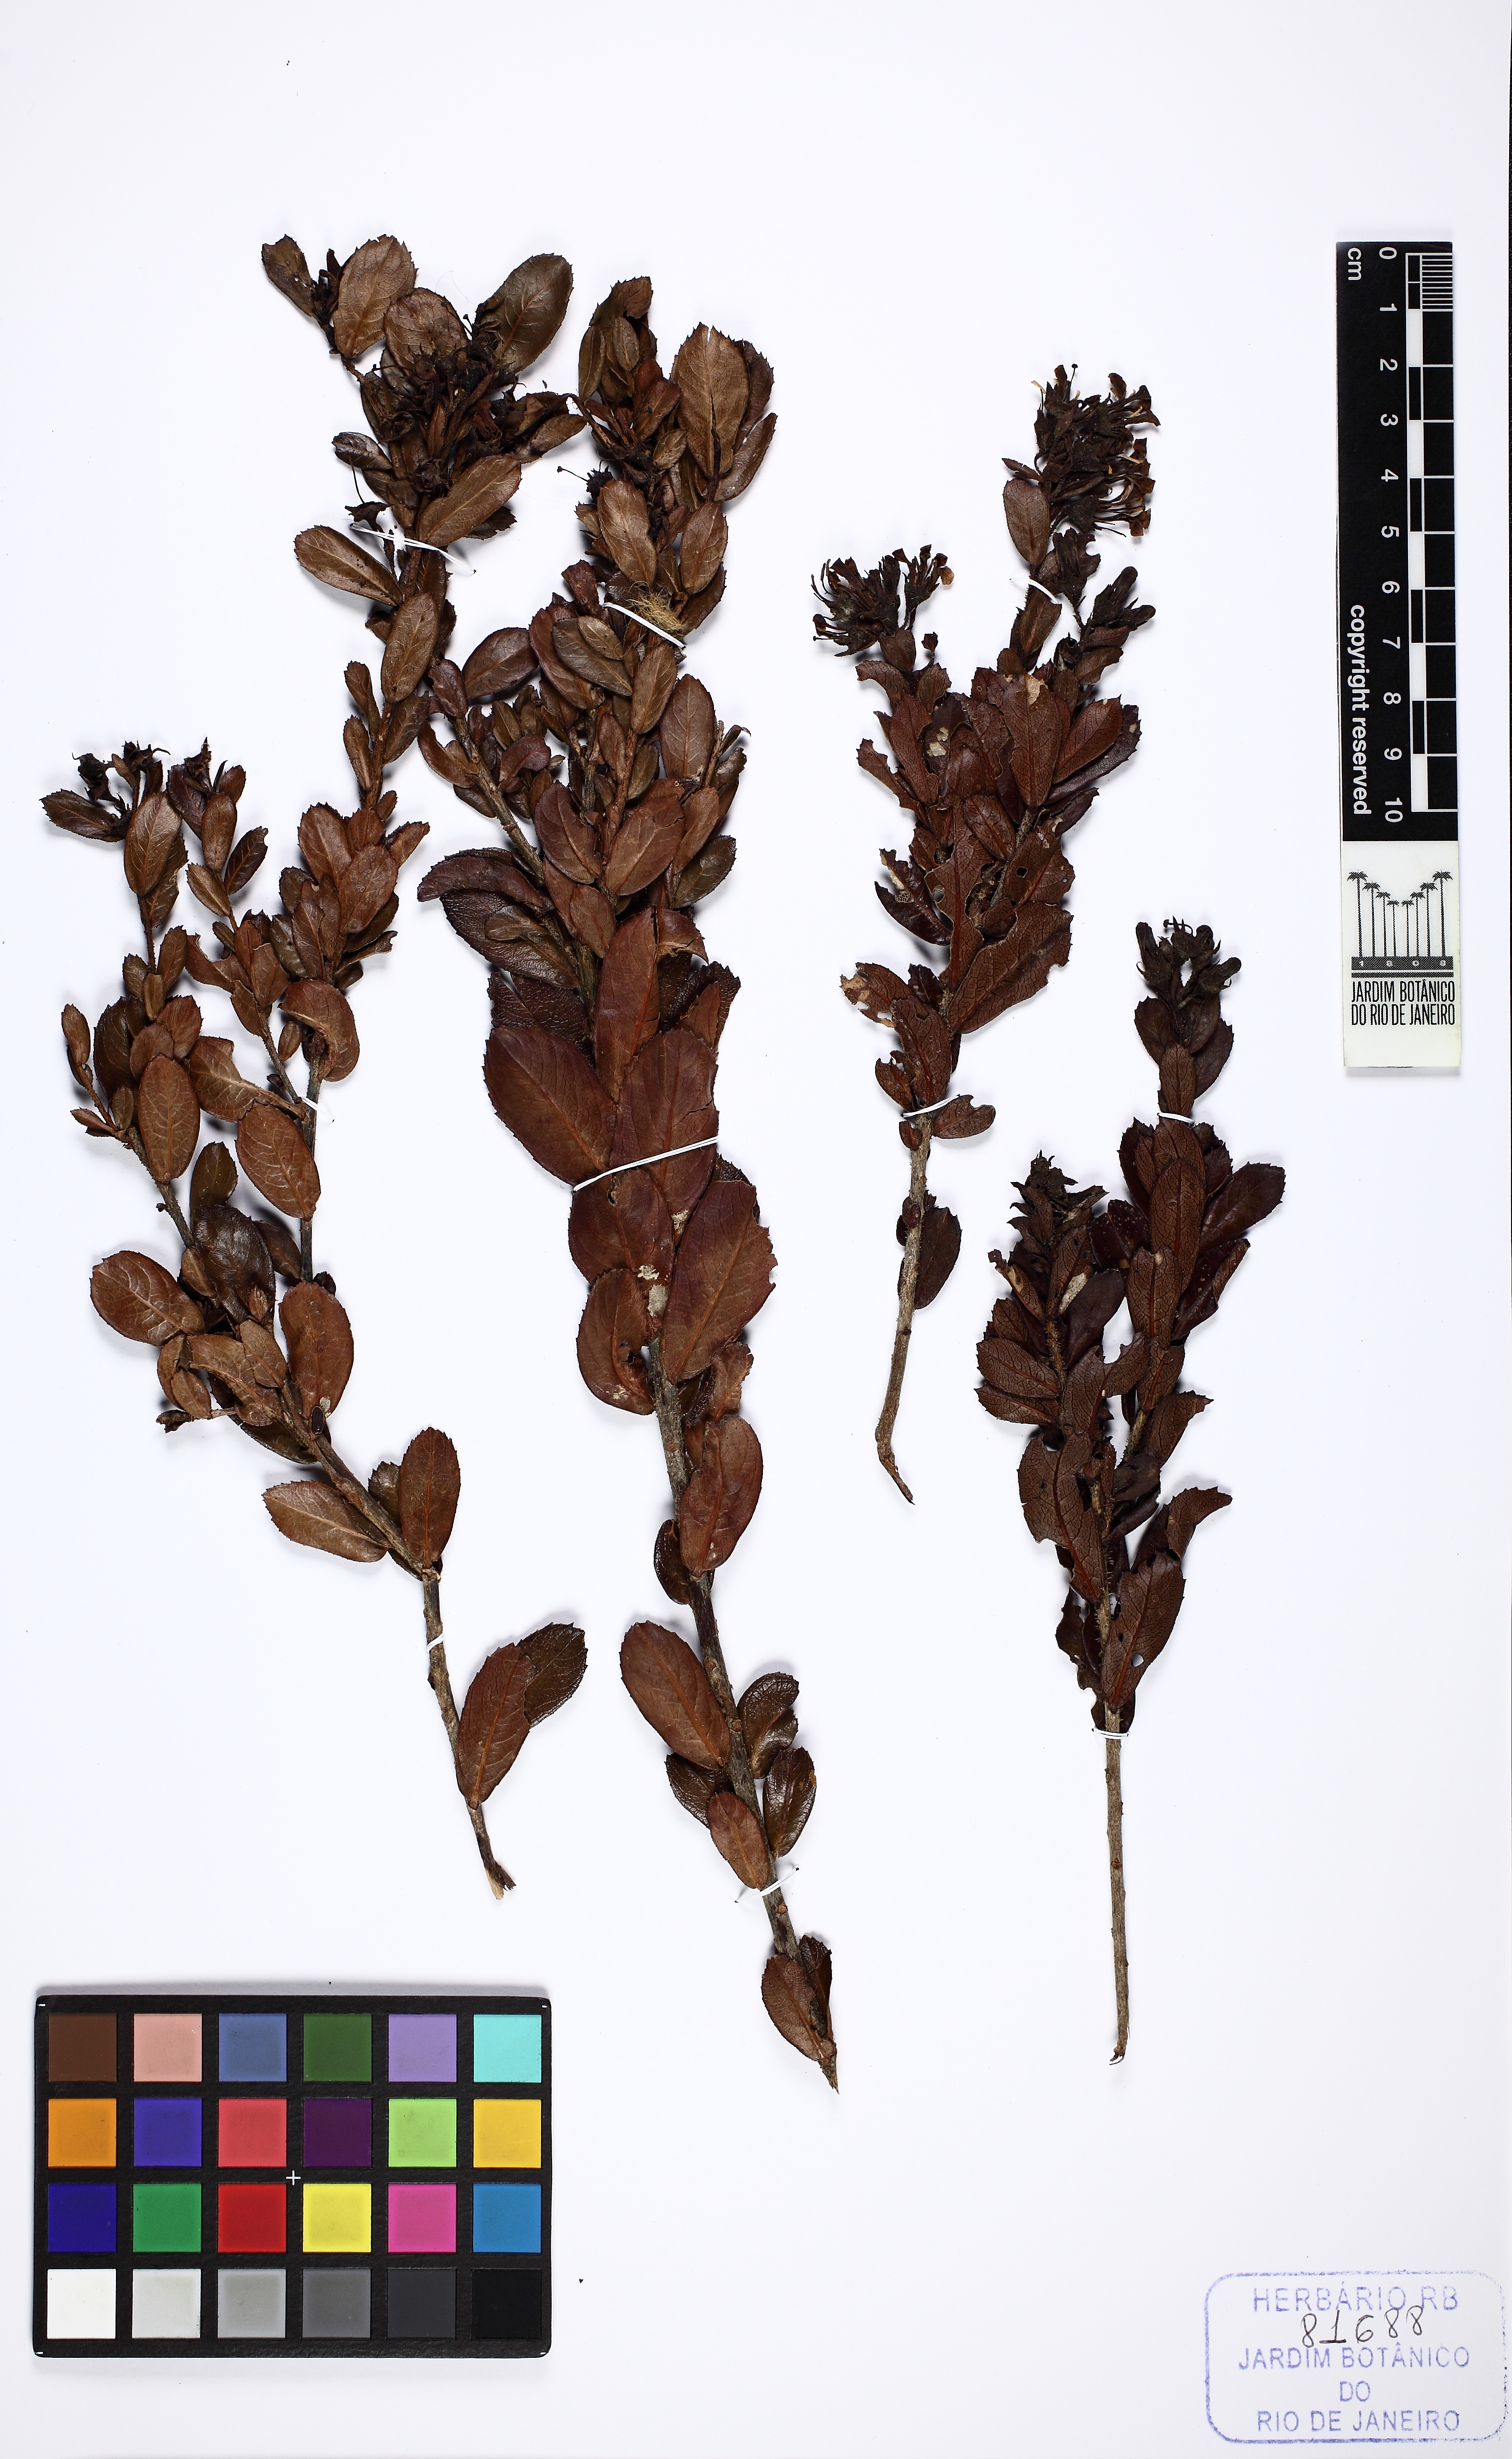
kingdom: Plantae
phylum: Tracheophyta
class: Magnoliopsida
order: Escalloniales
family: Escalloniaceae
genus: Escallonia
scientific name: Escallonia hispida
